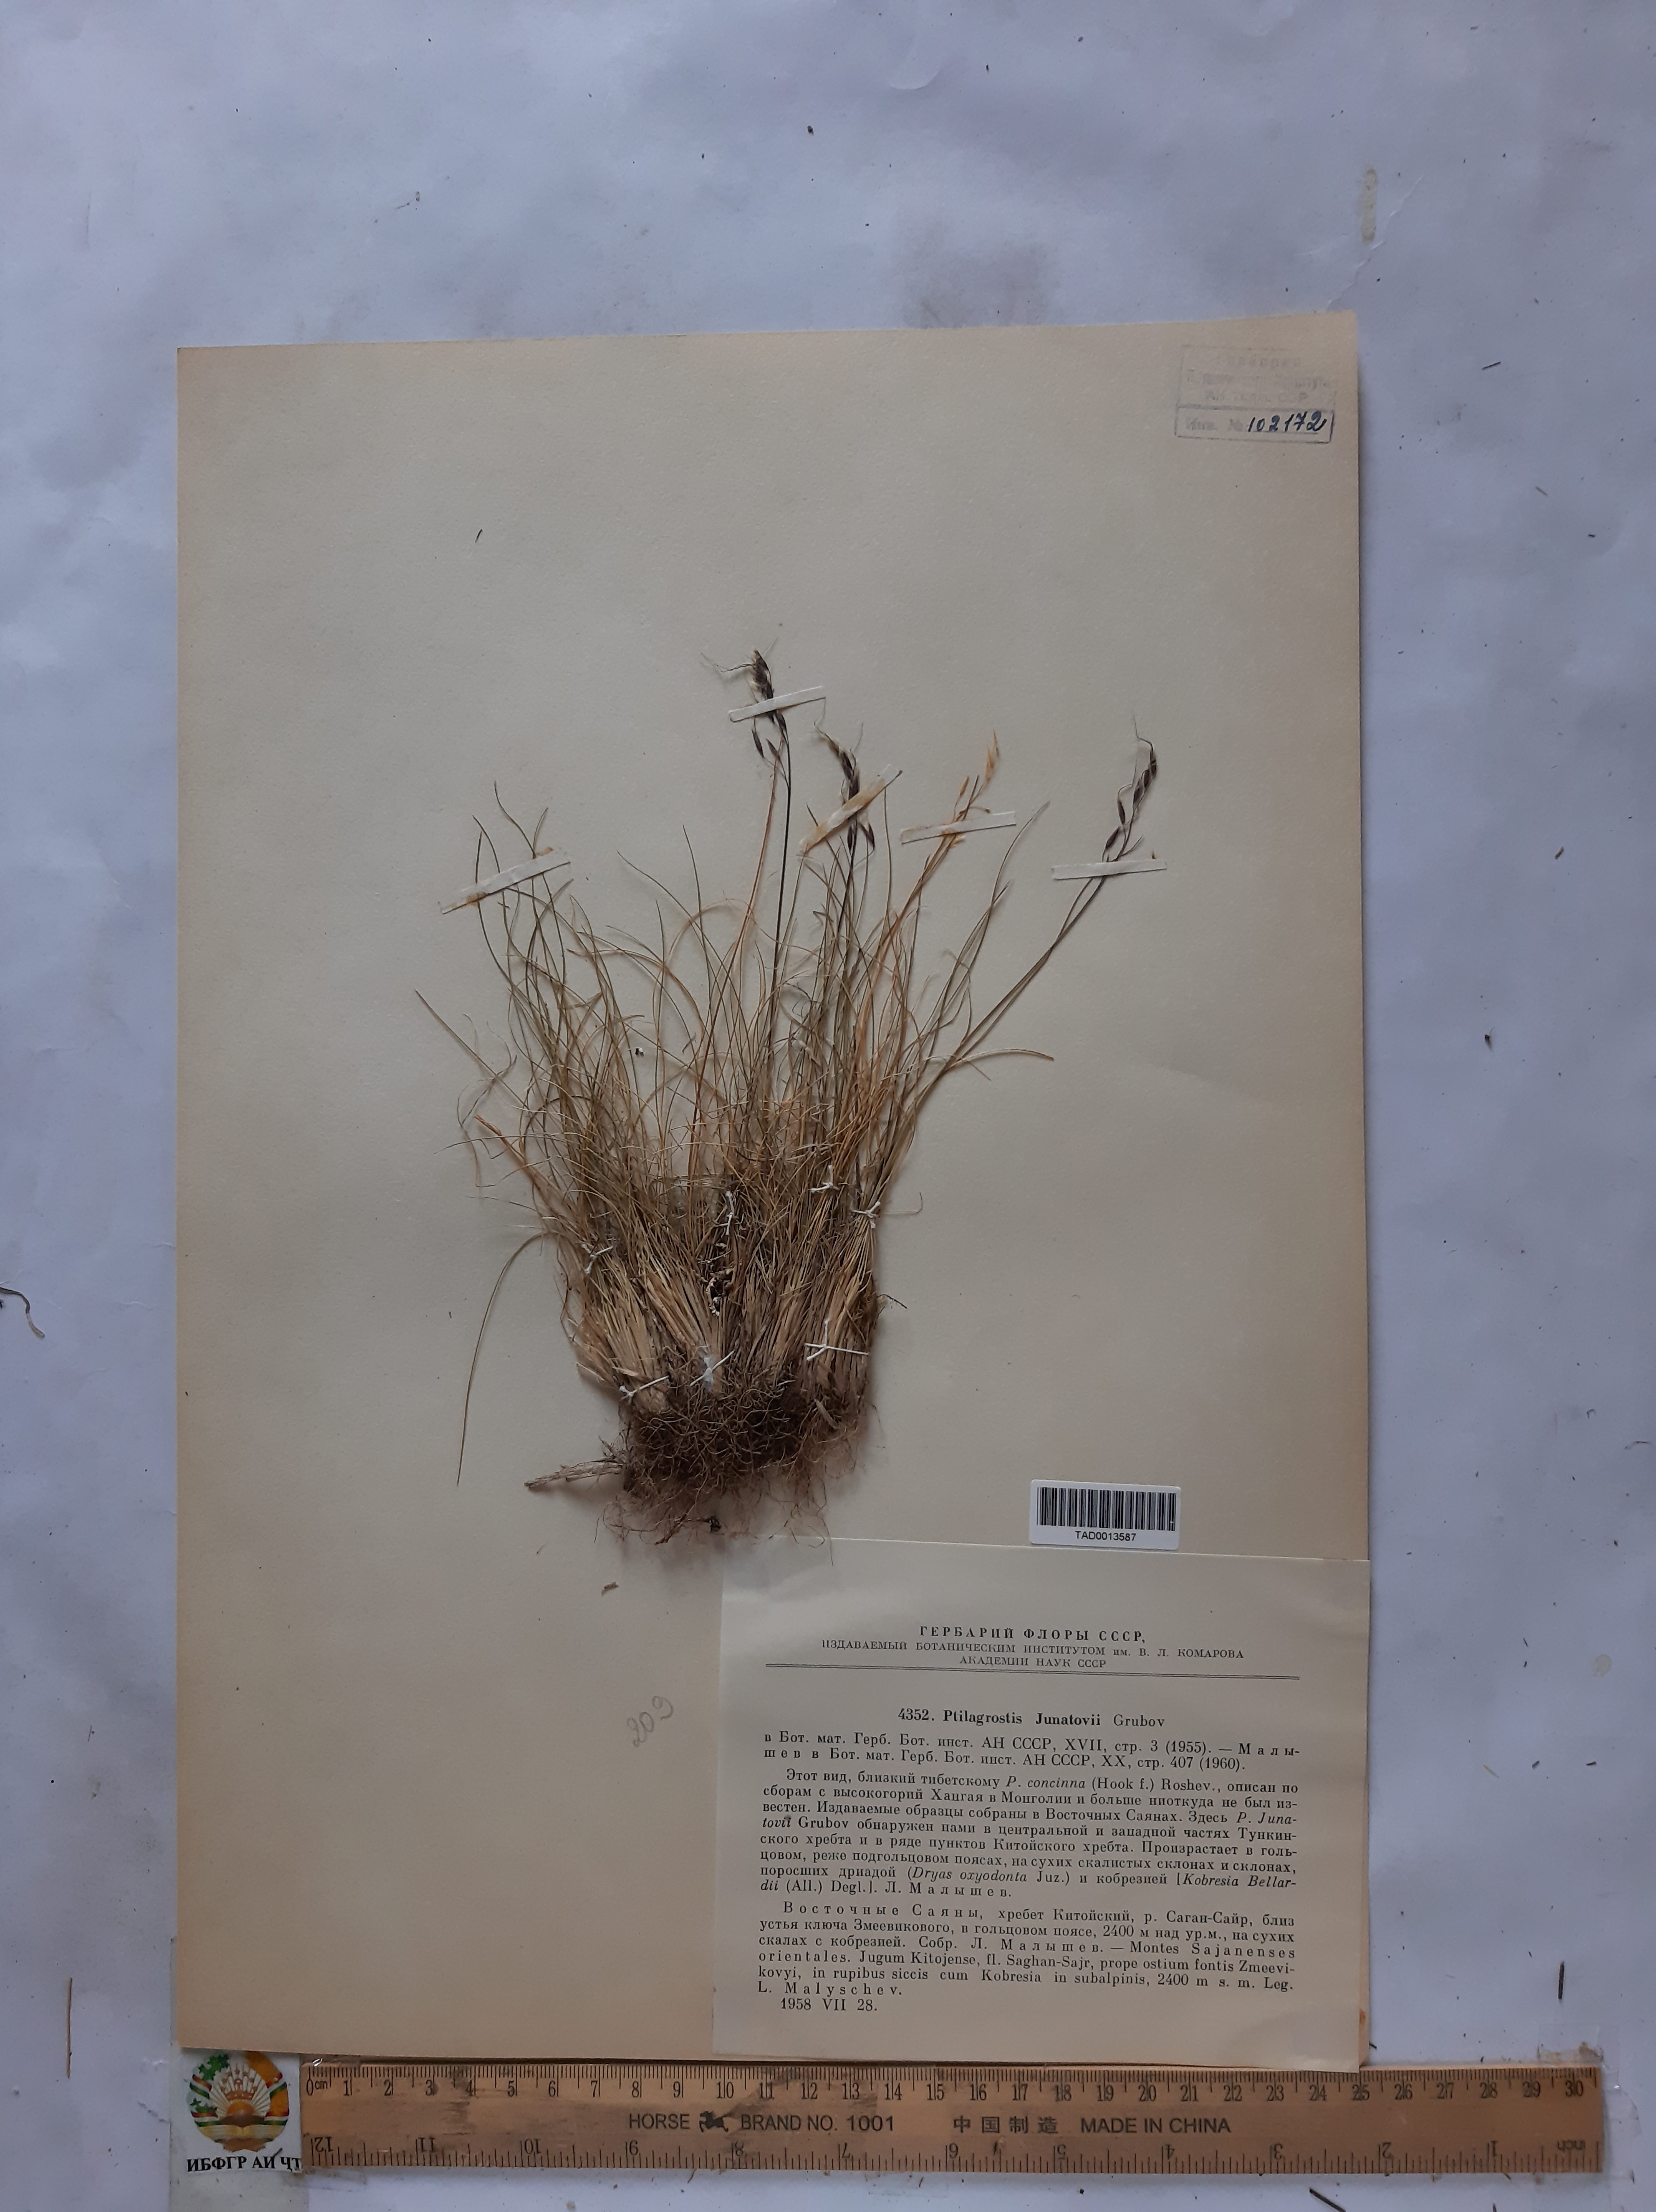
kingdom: Plantae
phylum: Tracheophyta
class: Liliopsida
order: Poales
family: Poaceae
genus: Ptilagrostis
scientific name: Ptilagrostis
